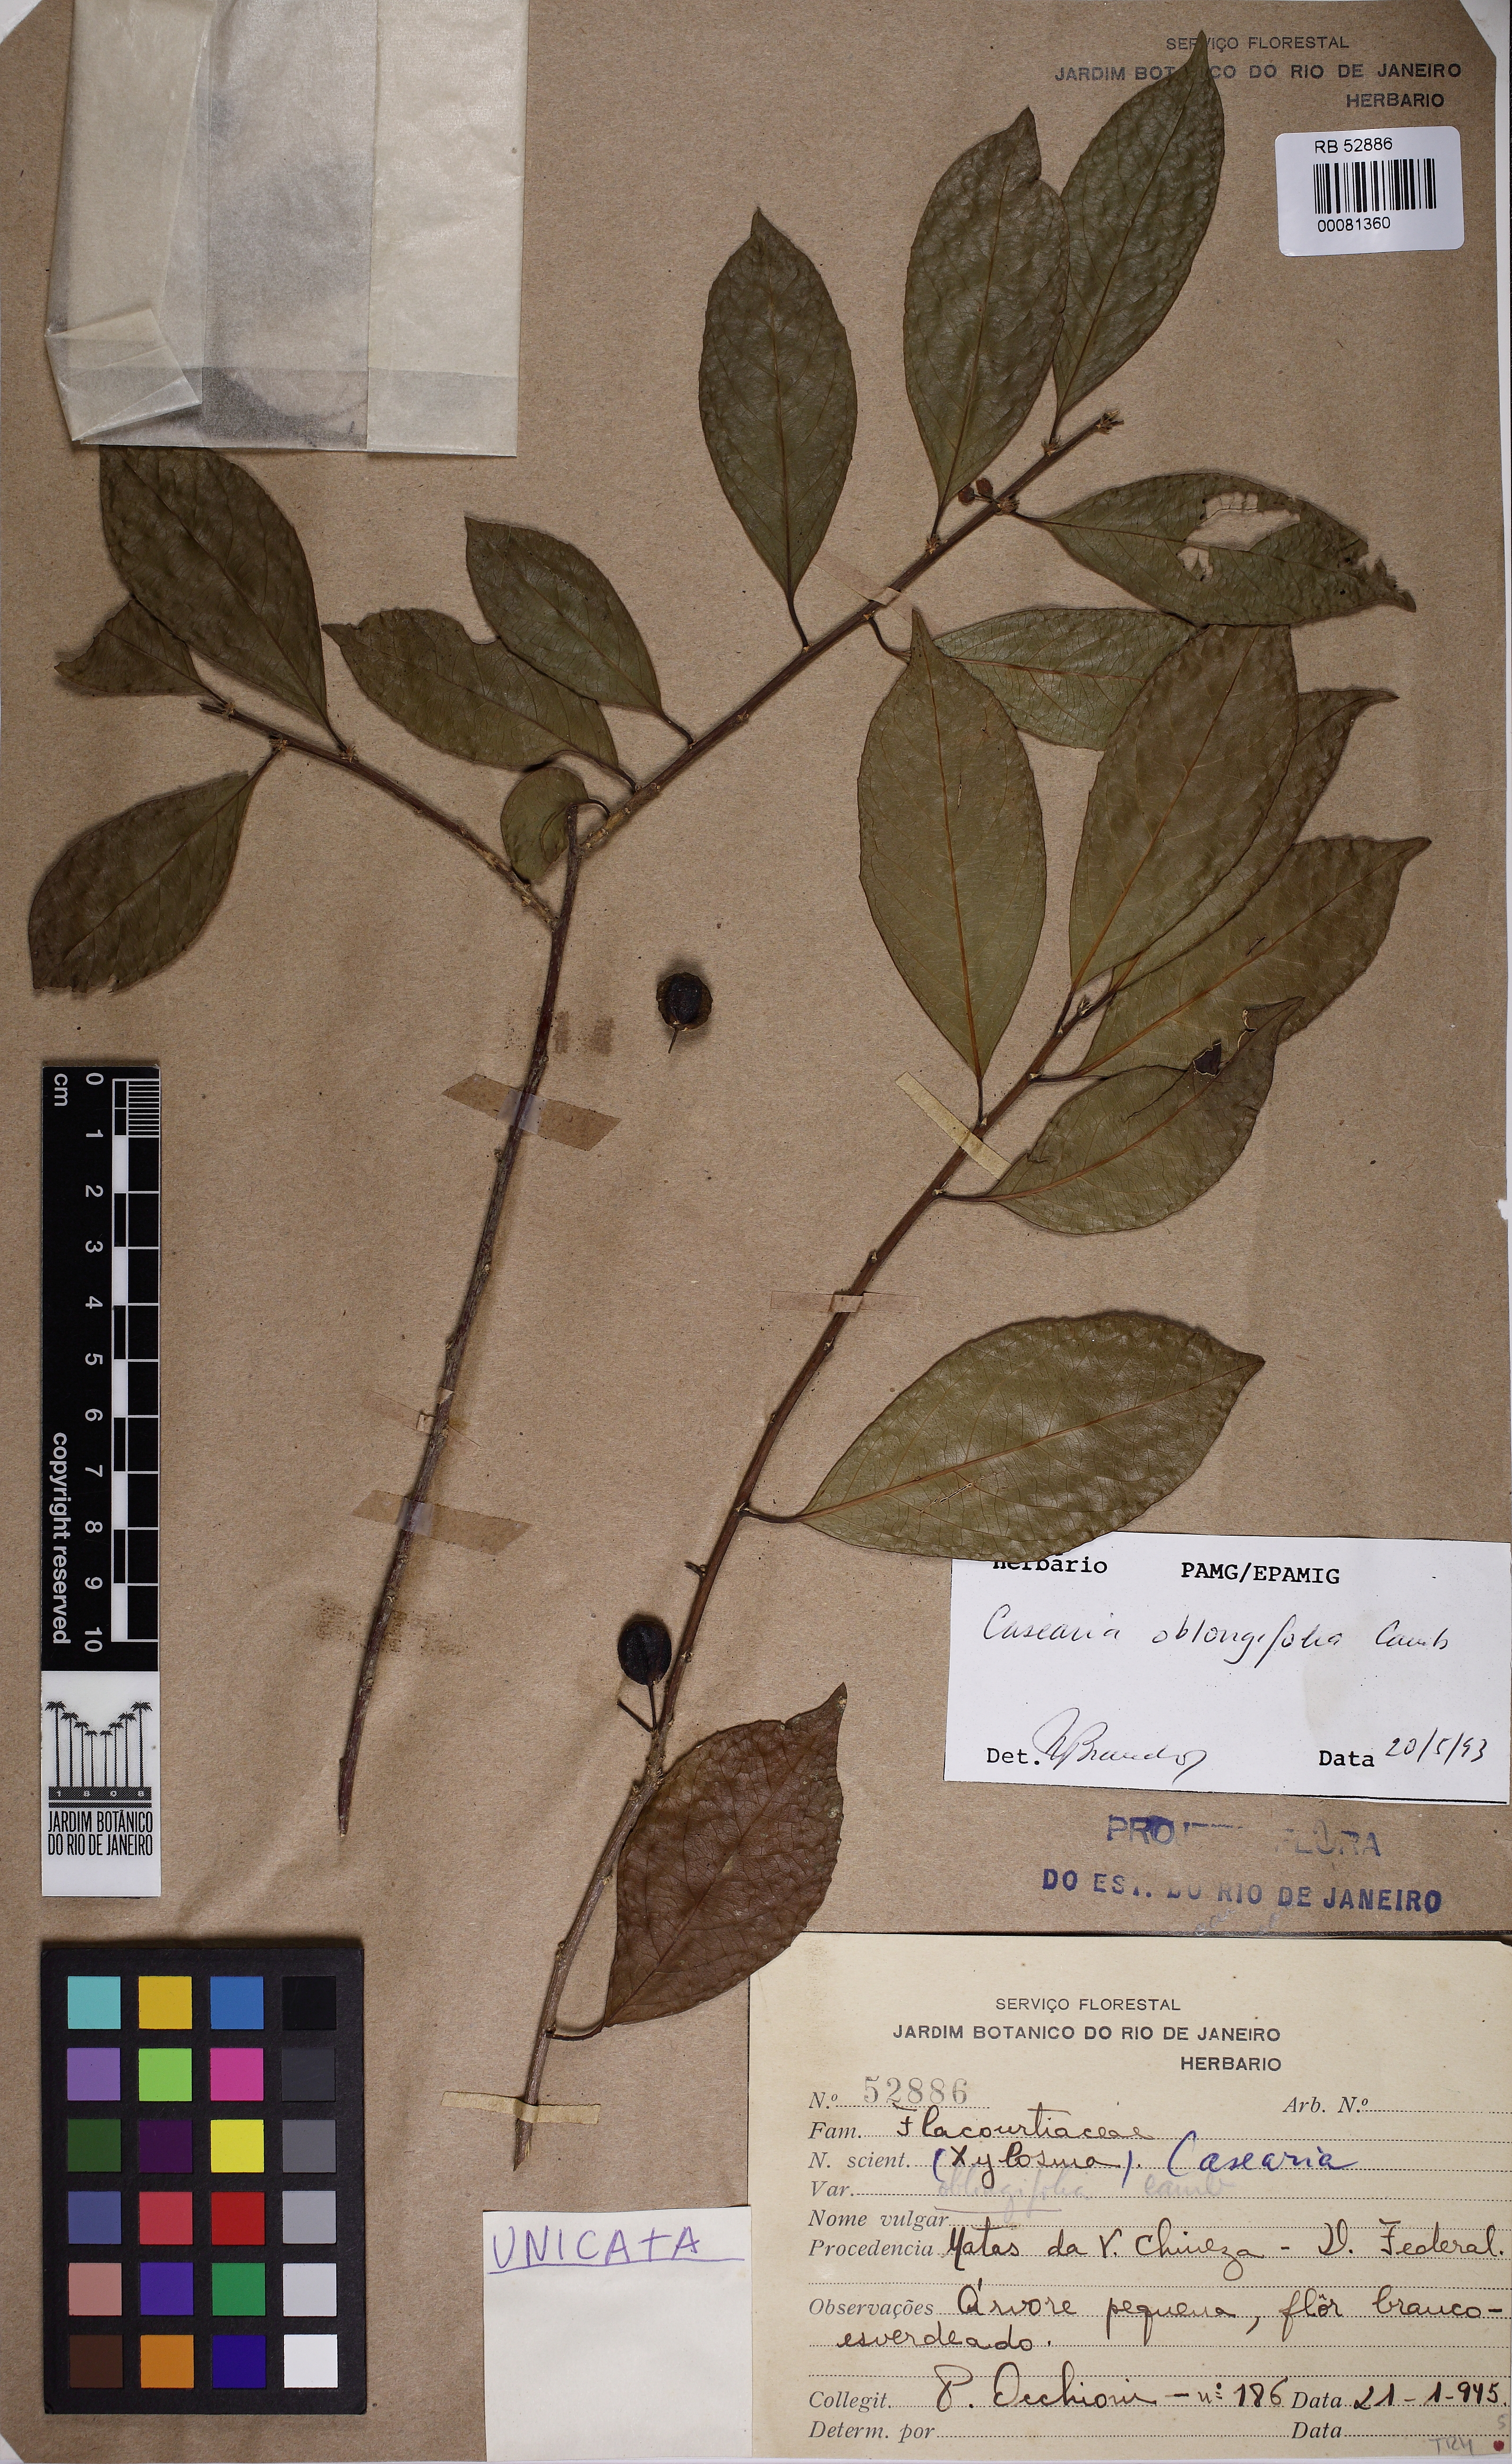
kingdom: Plantae
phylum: Tracheophyta
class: Magnoliopsida
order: Malpighiales
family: Salicaceae
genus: Casearia
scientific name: Casearia oblongifolia
